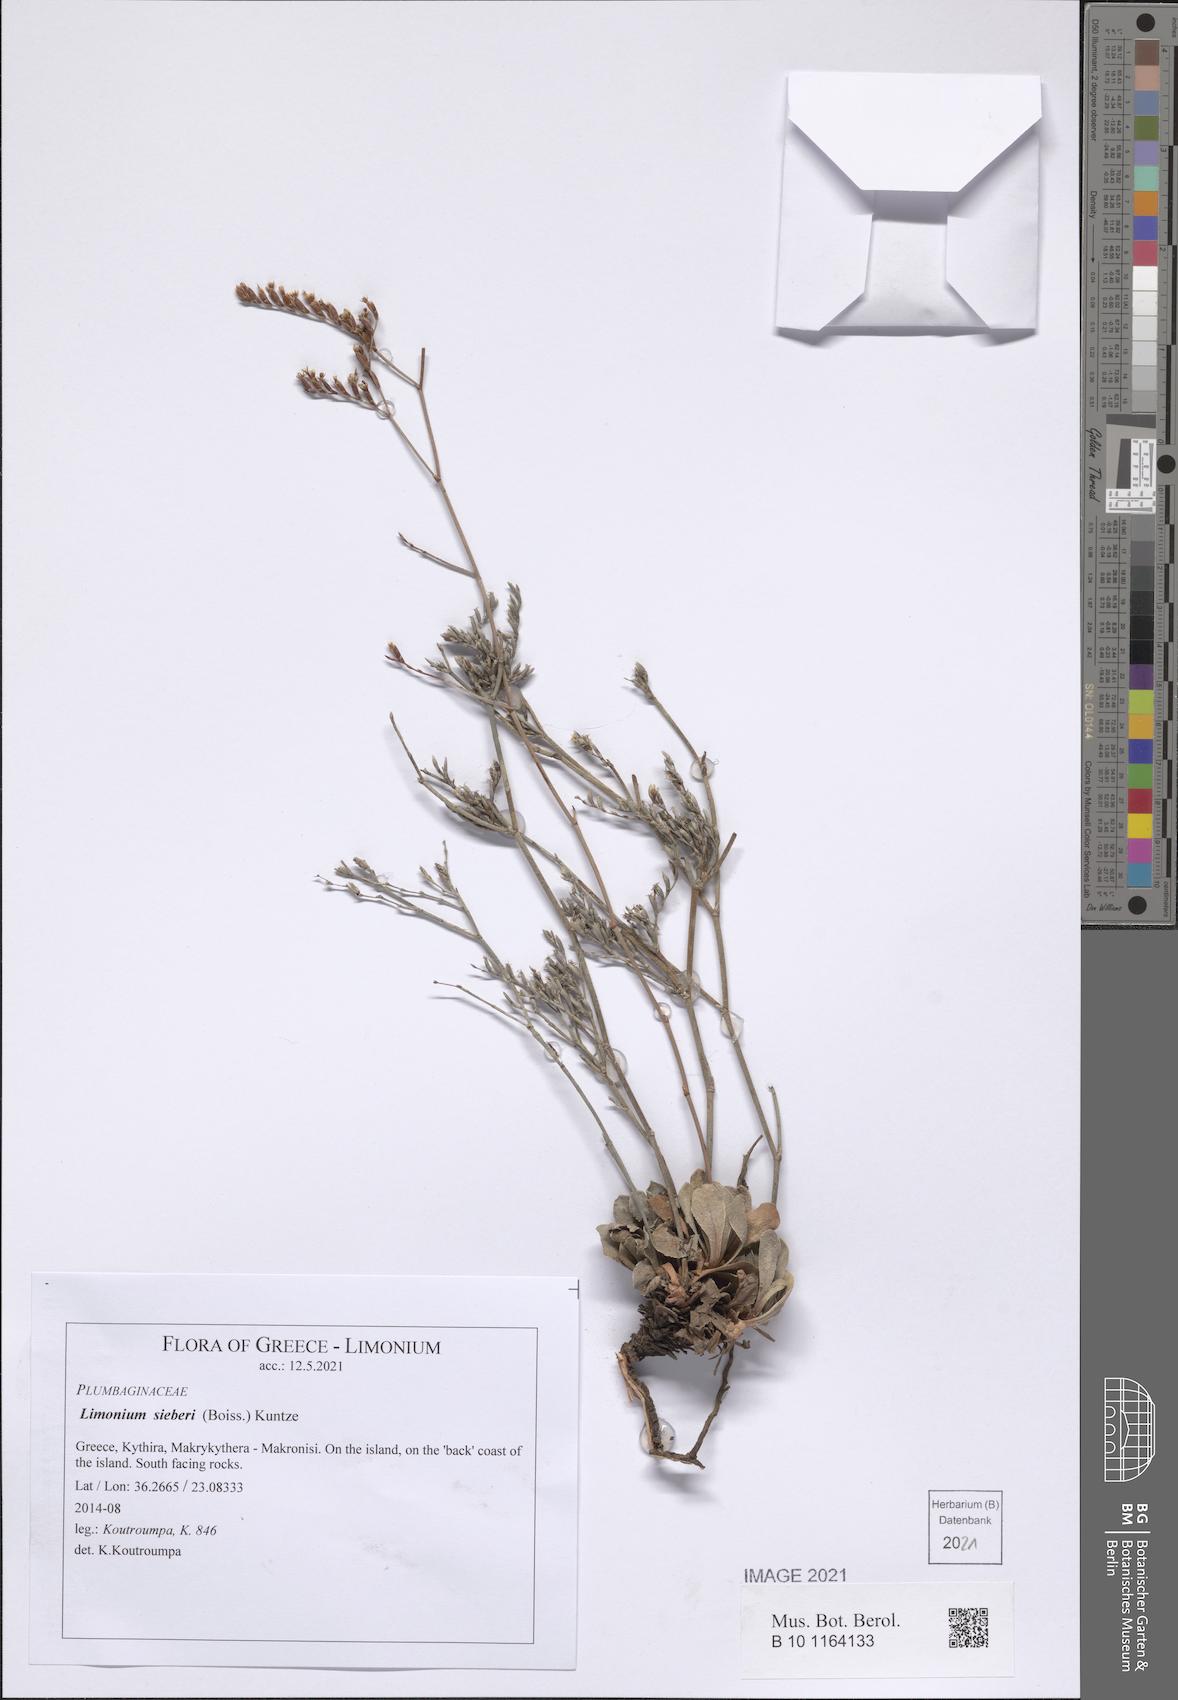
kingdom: Plantae
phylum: Tracheophyta
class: Magnoliopsida
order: Caryophyllales
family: Plumbaginaceae
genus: Limonium
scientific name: Limonium sieberi
